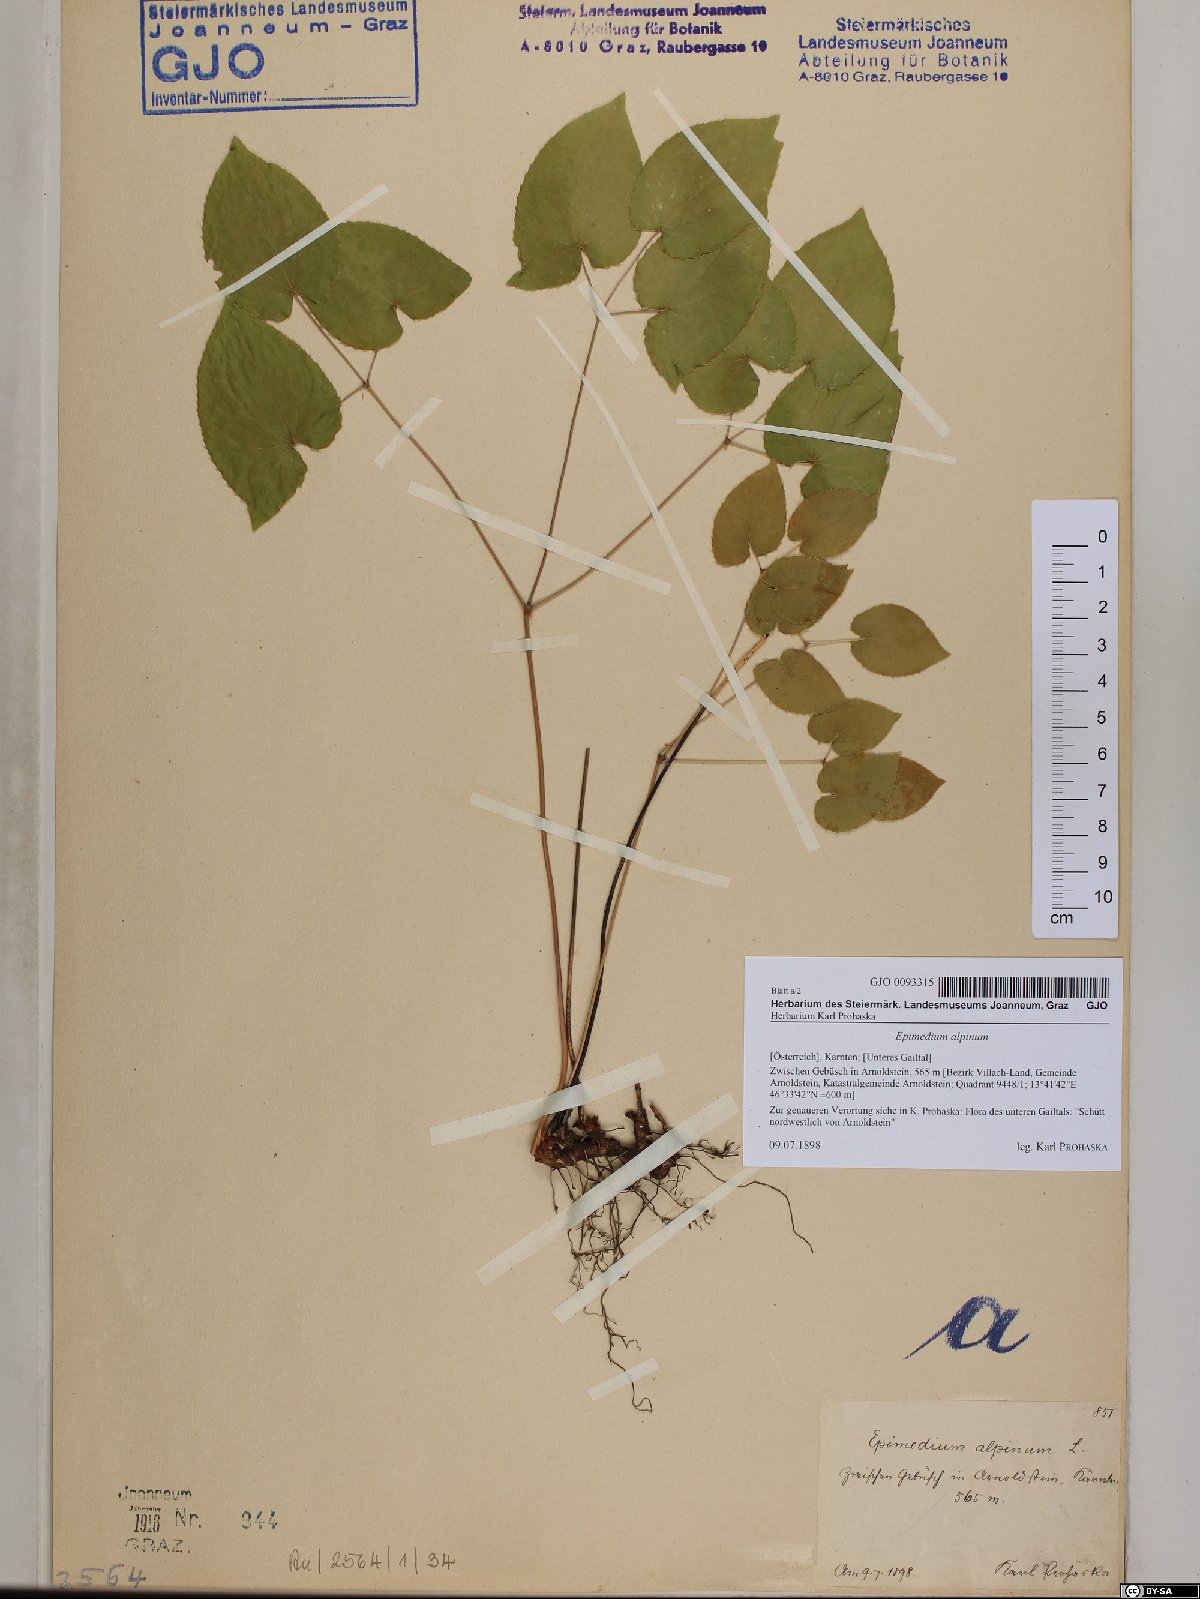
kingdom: Plantae
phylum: Tracheophyta
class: Magnoliopsida
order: Ranunculales
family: Berberidaceae
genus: Epimedium
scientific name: Epimedium alpinum
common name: Barrenwort
